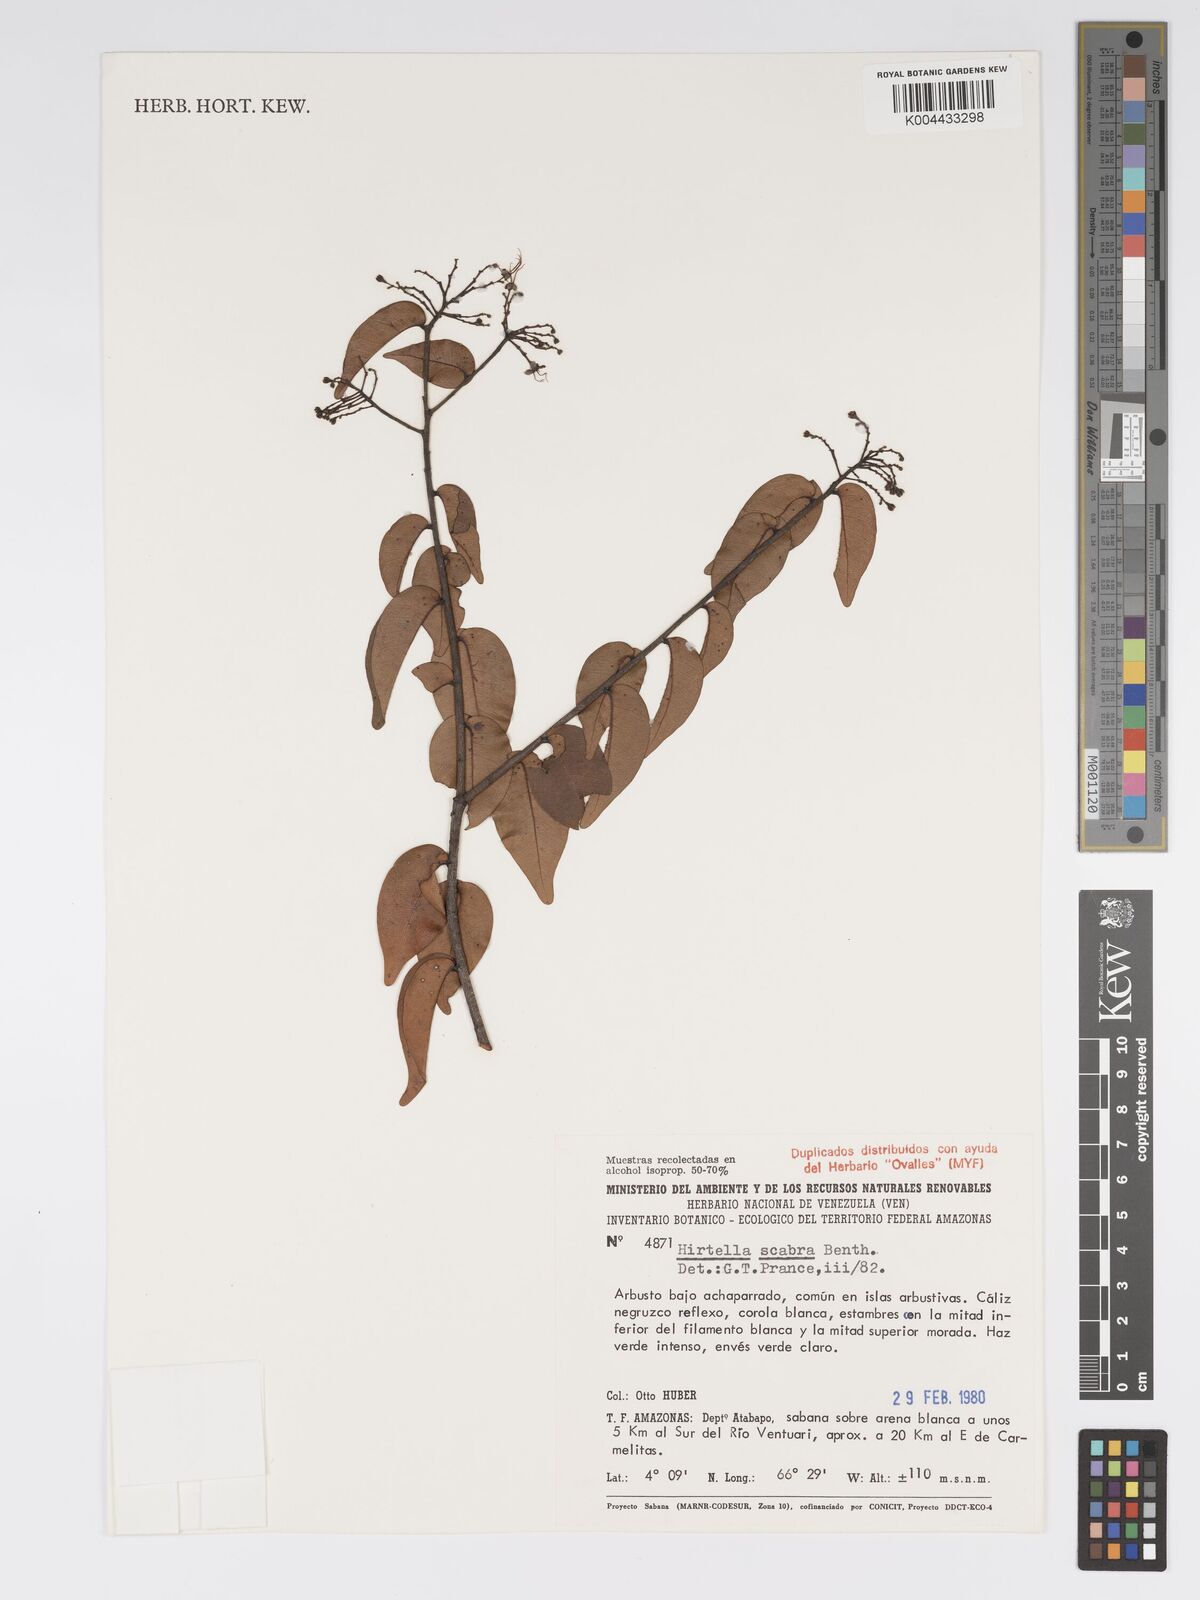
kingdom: Plantae
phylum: Tracheophyta
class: Magnoliopsida
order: Malpighiales
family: Chrysobalanaceae
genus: Hirtella
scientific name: Hirtella scabra
